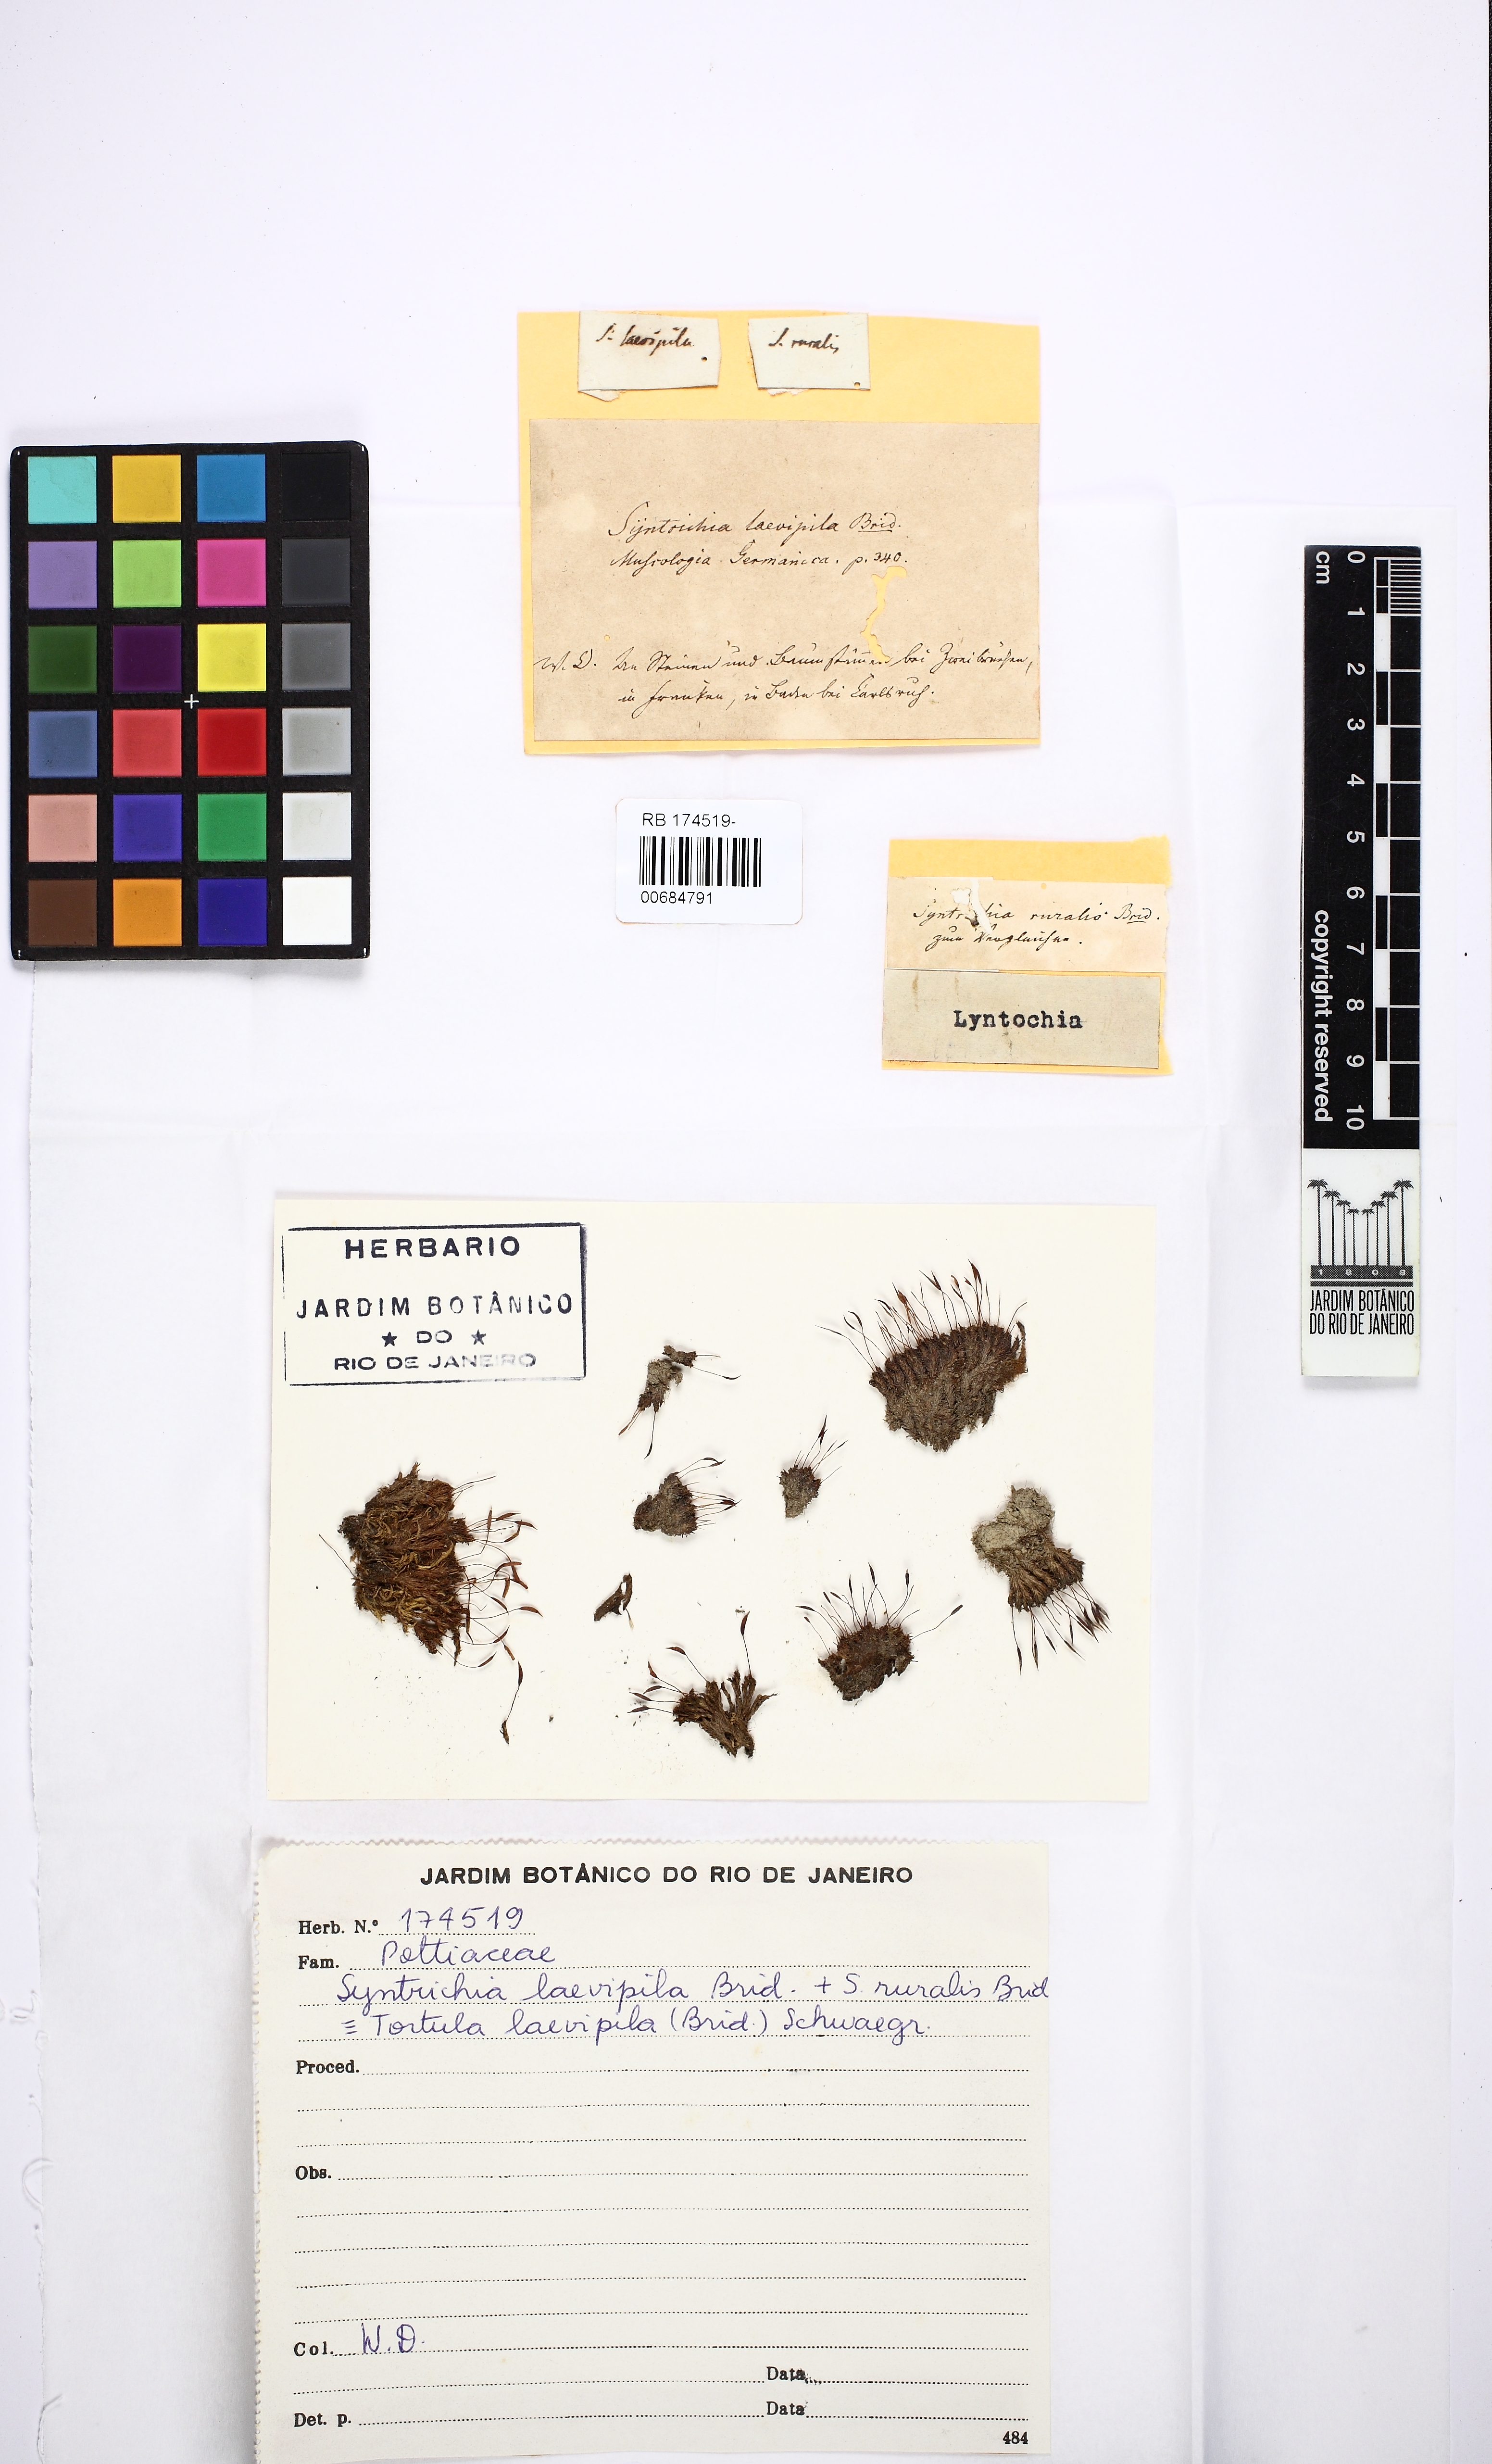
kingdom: Plantae
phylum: Bryophyta
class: Bryopsida
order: Pottiales
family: Pottiaceae
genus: Syntrichia
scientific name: Syntrichia laevipila
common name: Small hairy screw-moss
